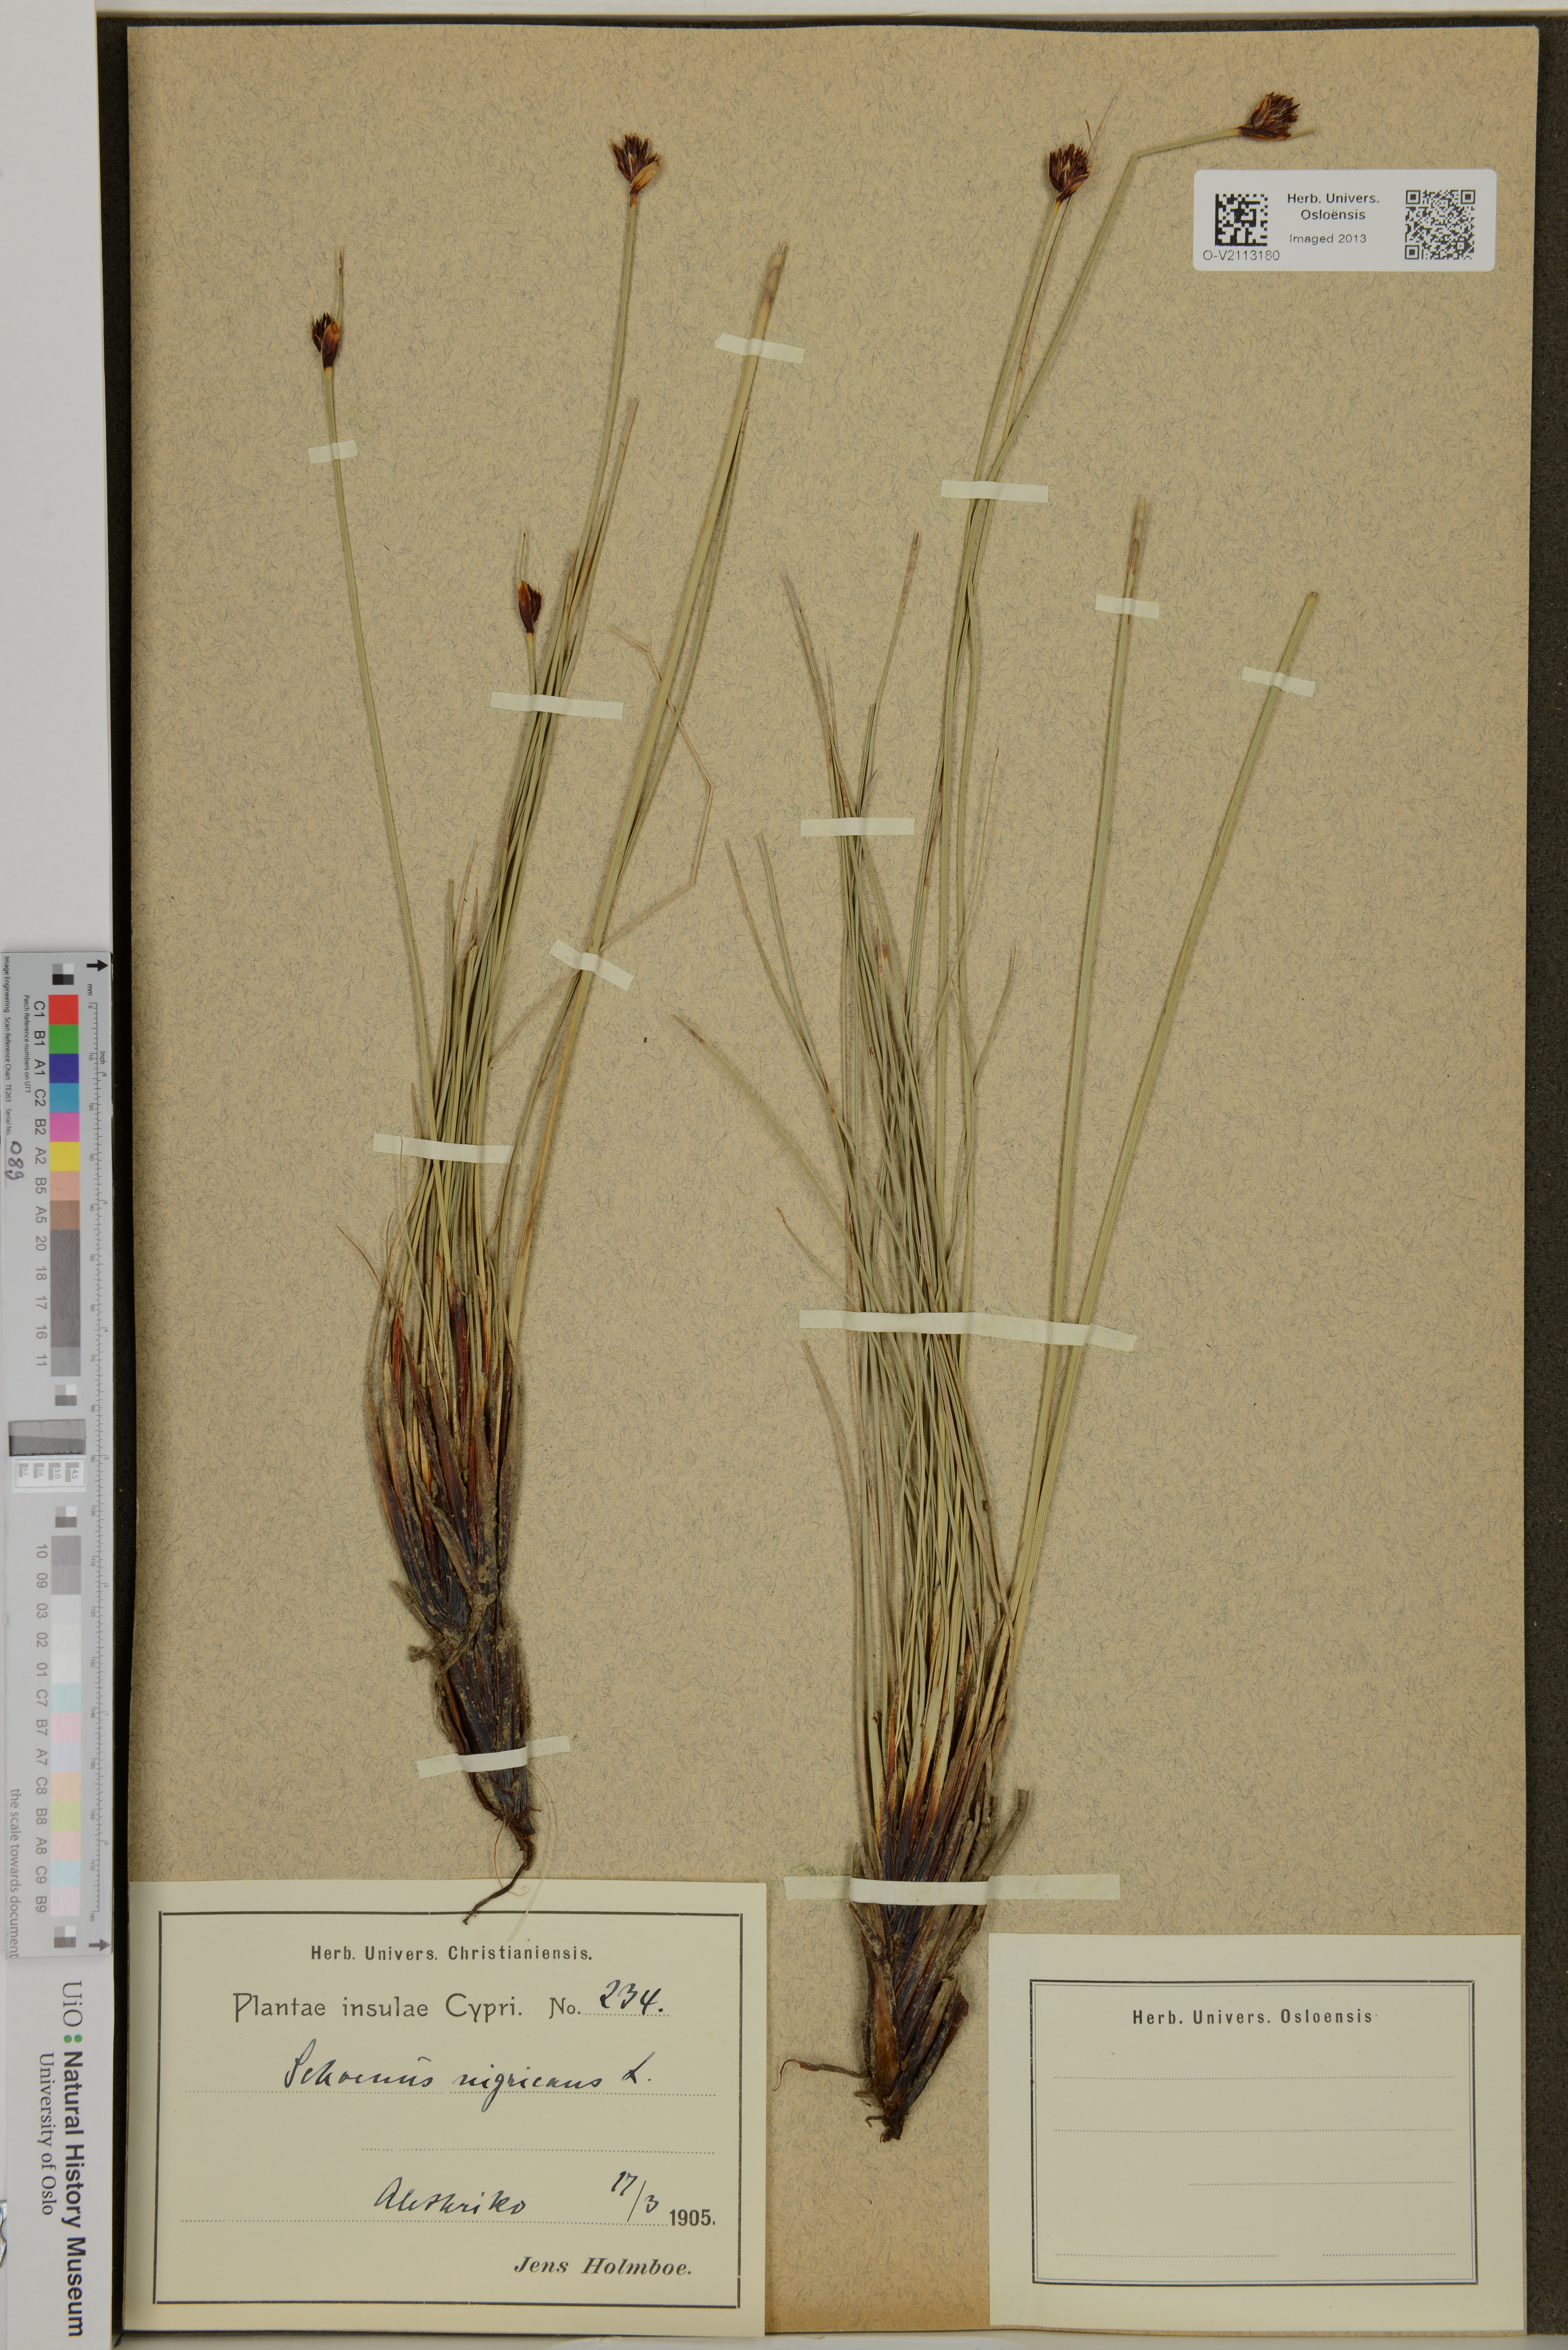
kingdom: Plantae
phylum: Tracheophyta
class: Liliopsida
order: Poales
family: Cyperaceae
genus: Schoenus
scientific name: Schoenus nigricans
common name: Black bog-rush
